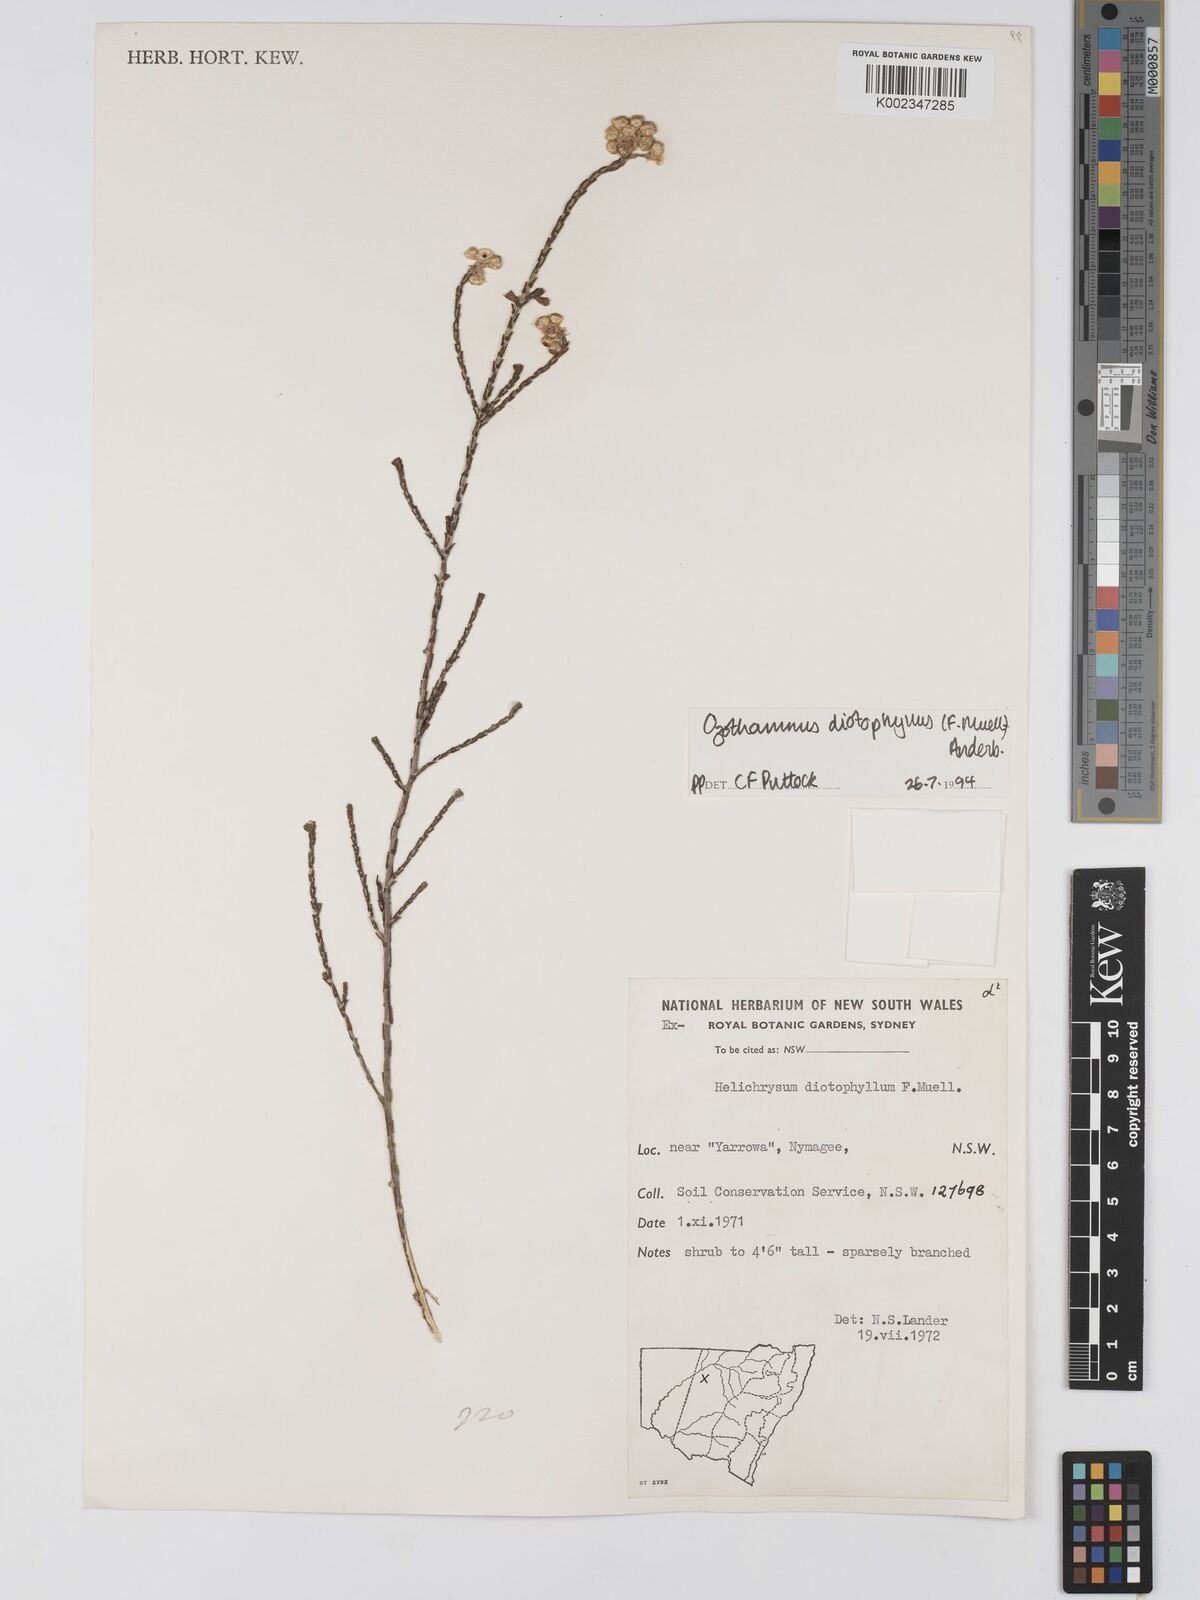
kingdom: Plantae
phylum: Tracheophyta
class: Magnoliopsida
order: Asterales
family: Asteraceae
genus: Ozothamnus
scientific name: Ozothamnus diotophyllus
